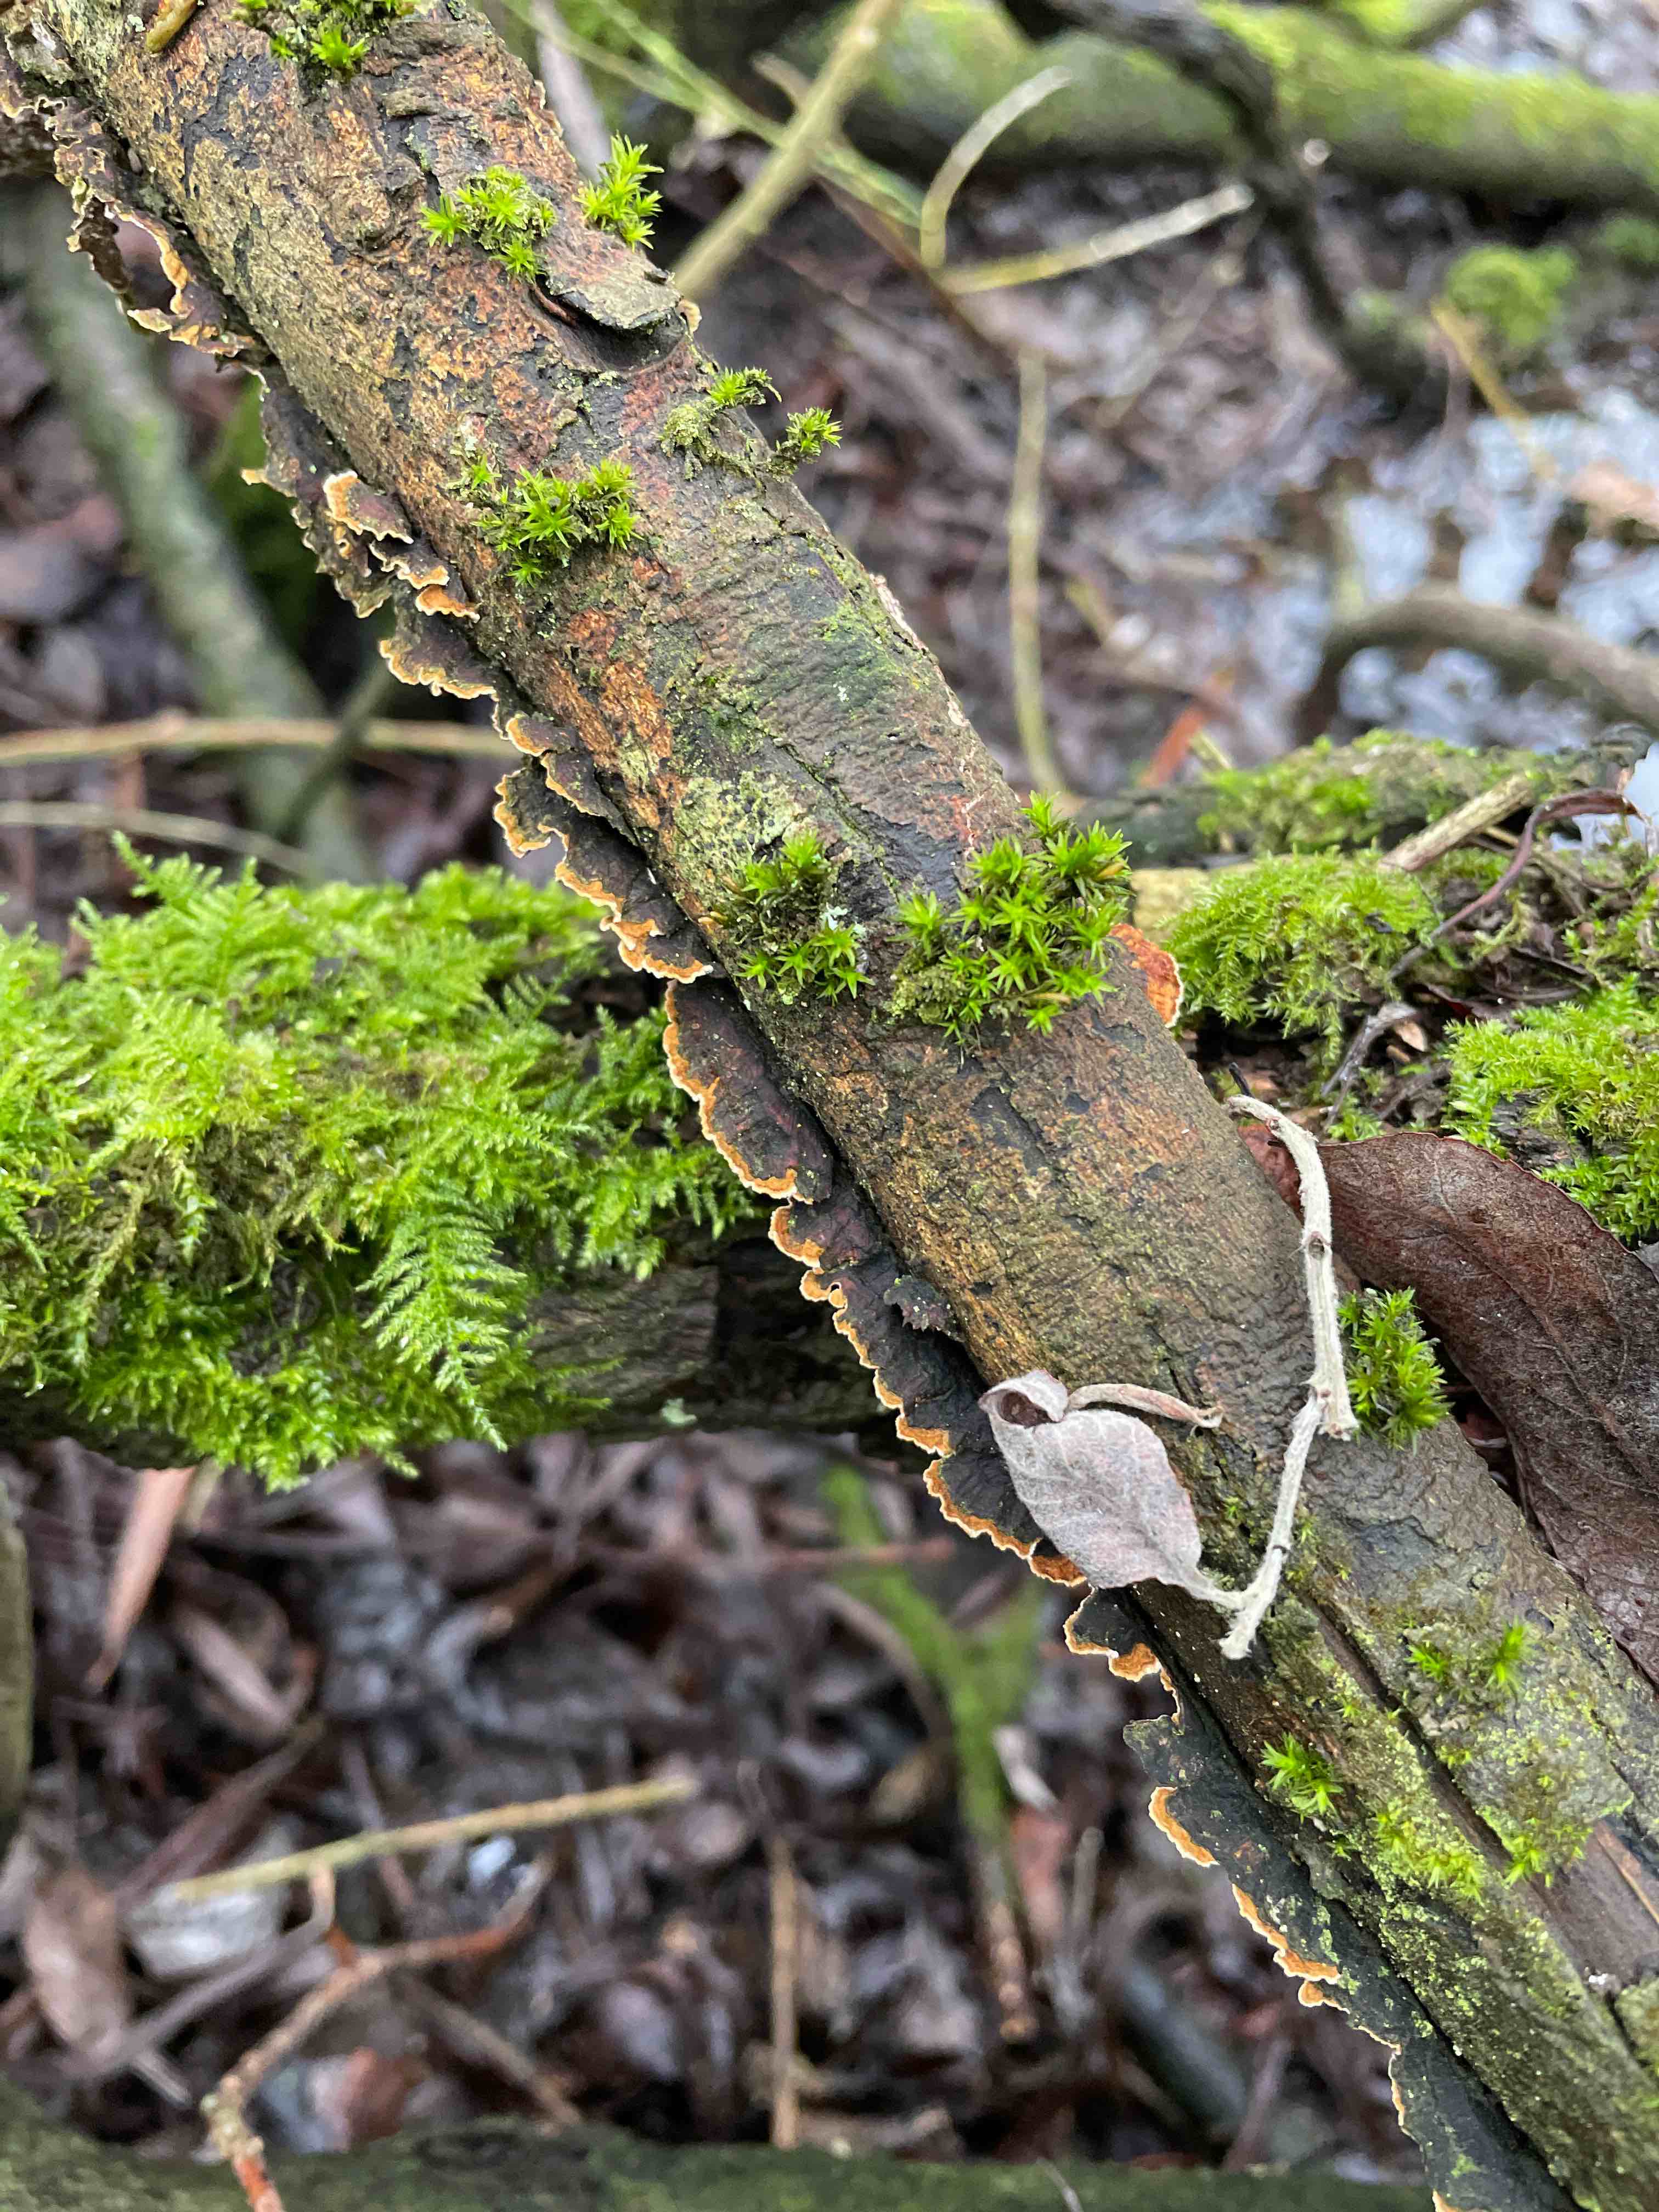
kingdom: Fungi
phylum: Basidiomycota
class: Agaricomycetes
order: Hymenochaetales
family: Hymenochaetaceae
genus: Hydnoporia
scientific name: Hydnoporia tabacina
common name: tobaksbrun ruslædersvamp
